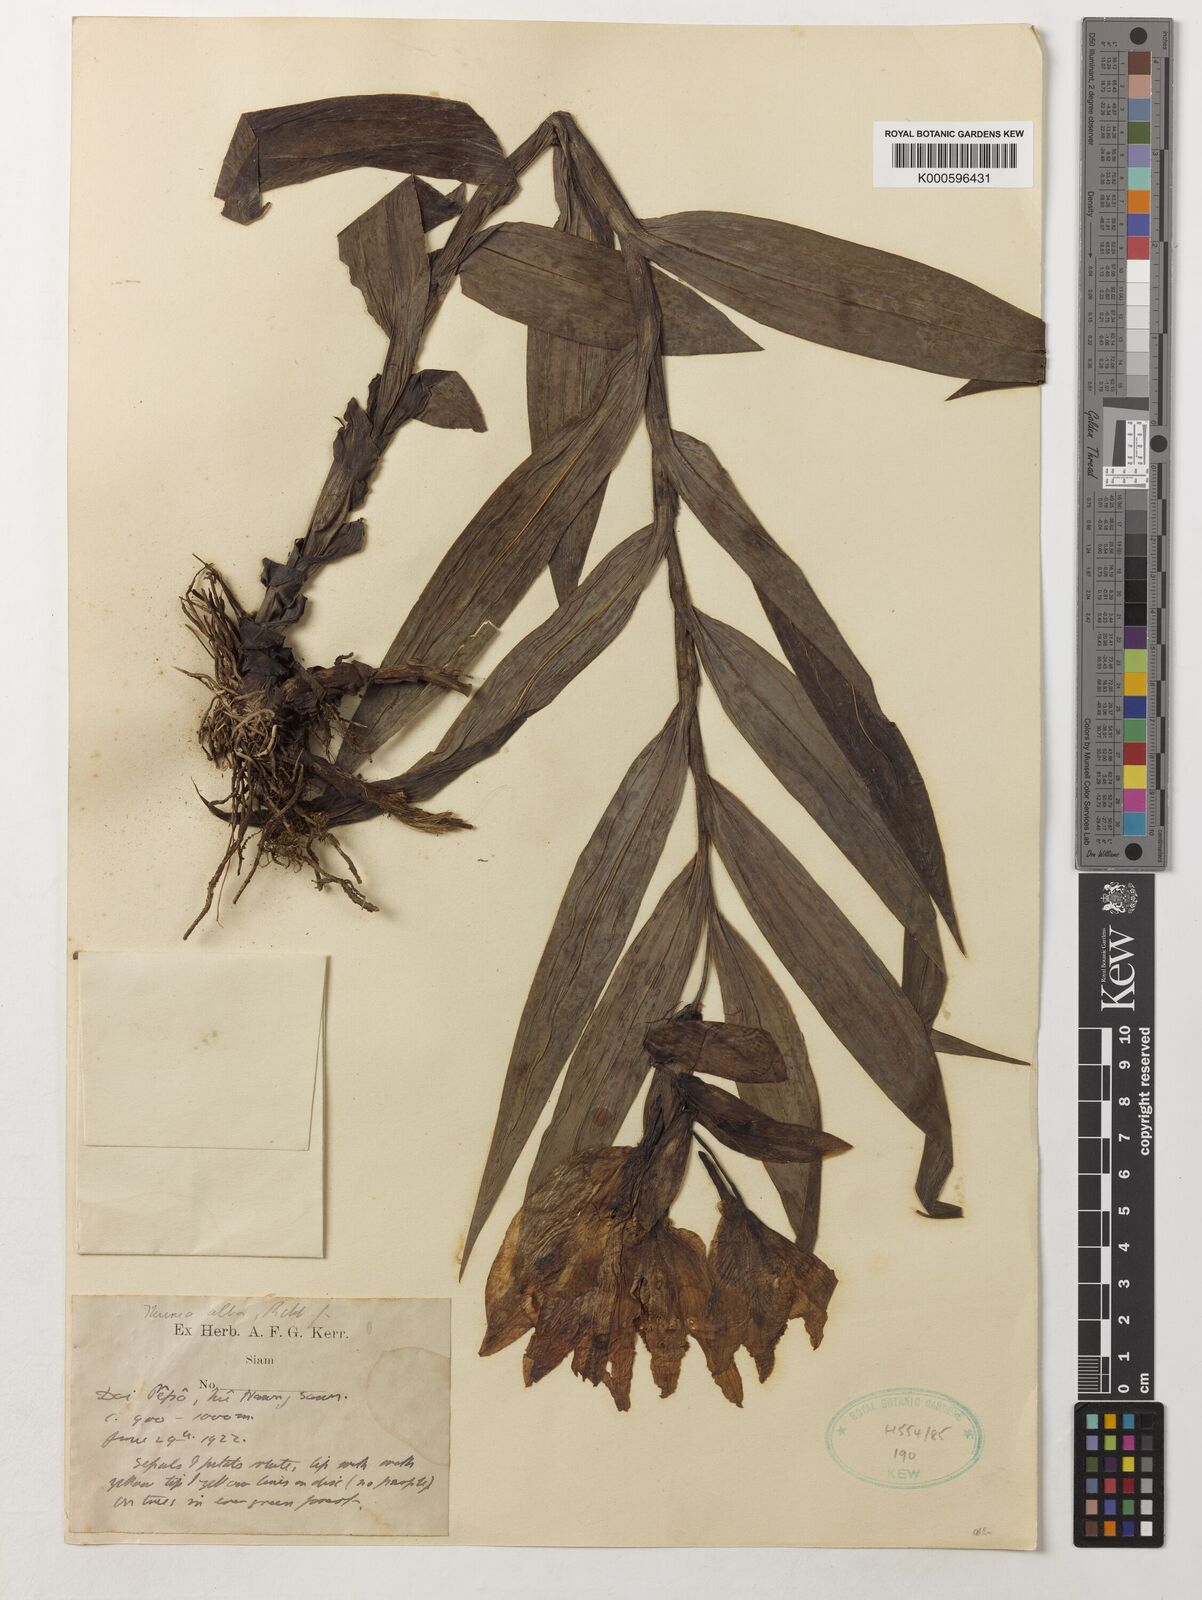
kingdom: Plantae
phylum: Tracheophyta
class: Liliopsida
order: Asparagales
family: Orchidaceae
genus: Thunia
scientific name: Thunia alba
